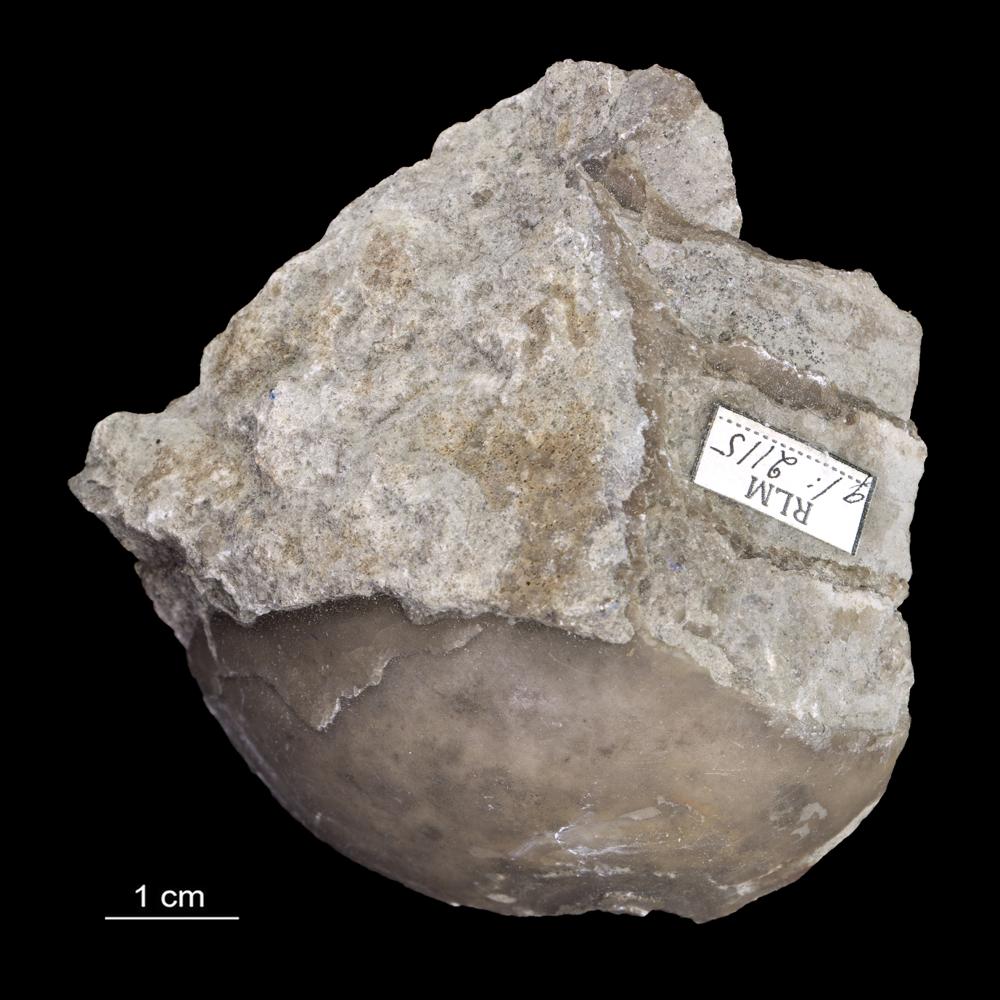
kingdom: Animalia
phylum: Mollusca
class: Cephalopoda
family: Endoceratidae
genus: Proterovaginoceras
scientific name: Proterovaginoceras Endoceras incognitum
